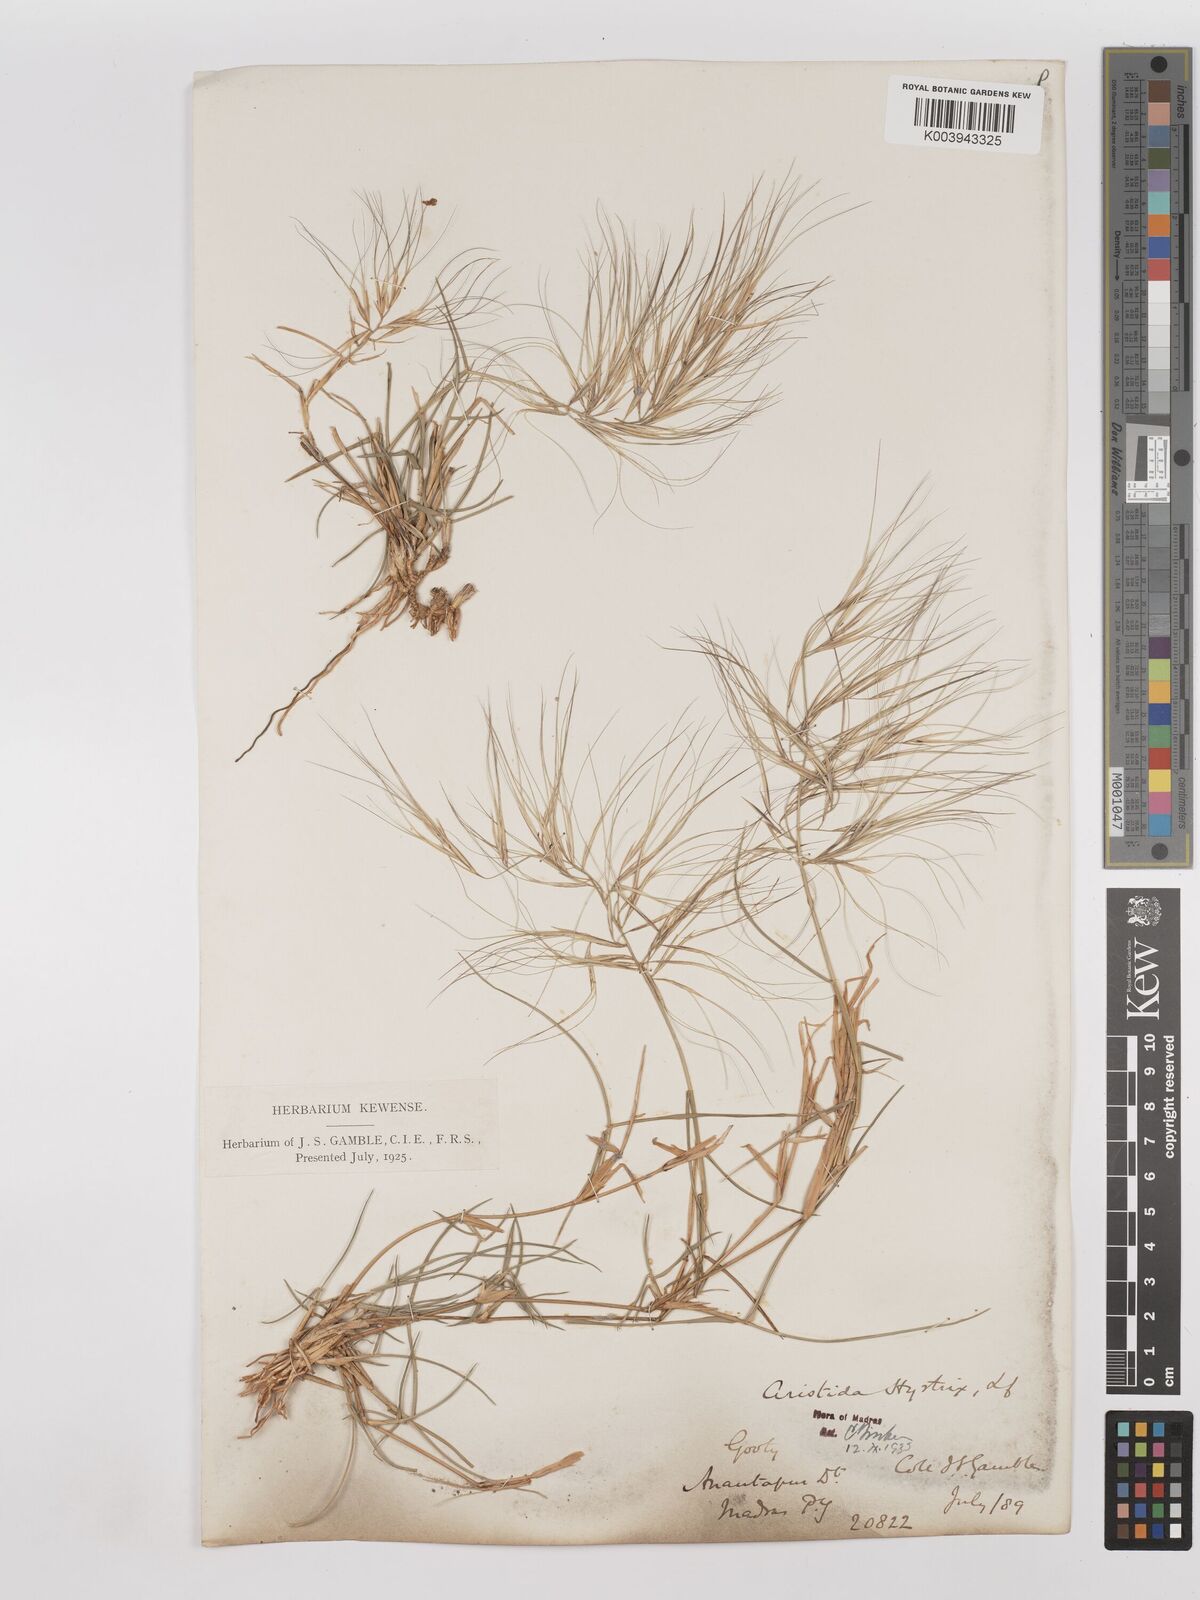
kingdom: Plantae
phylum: Tracheophyta
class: Liliopsida
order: Poales
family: Poaceae
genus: Aristida
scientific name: Aristida hystrix
